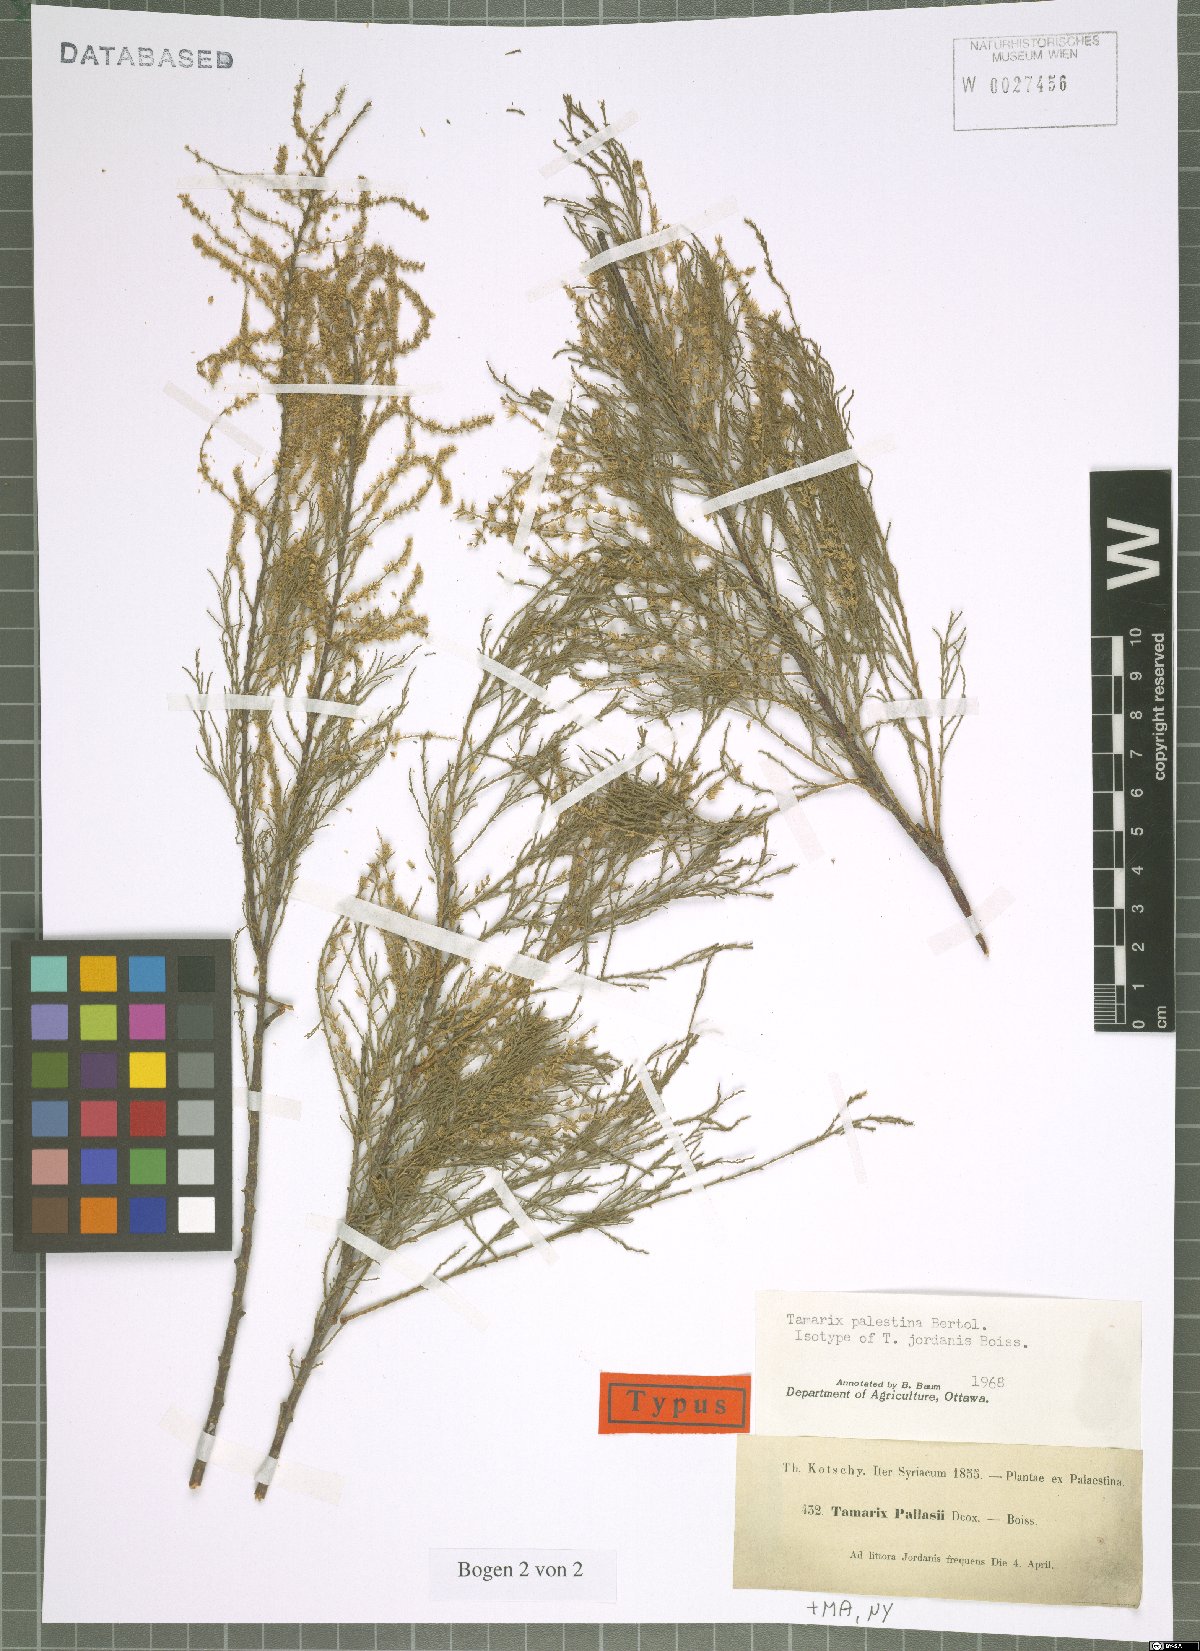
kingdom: Plantae
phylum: Tracheophyta
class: Magnoliopsida
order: Caryophyllales
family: Tamaricaceae
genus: Tamarix
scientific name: Tamarix palaestina
